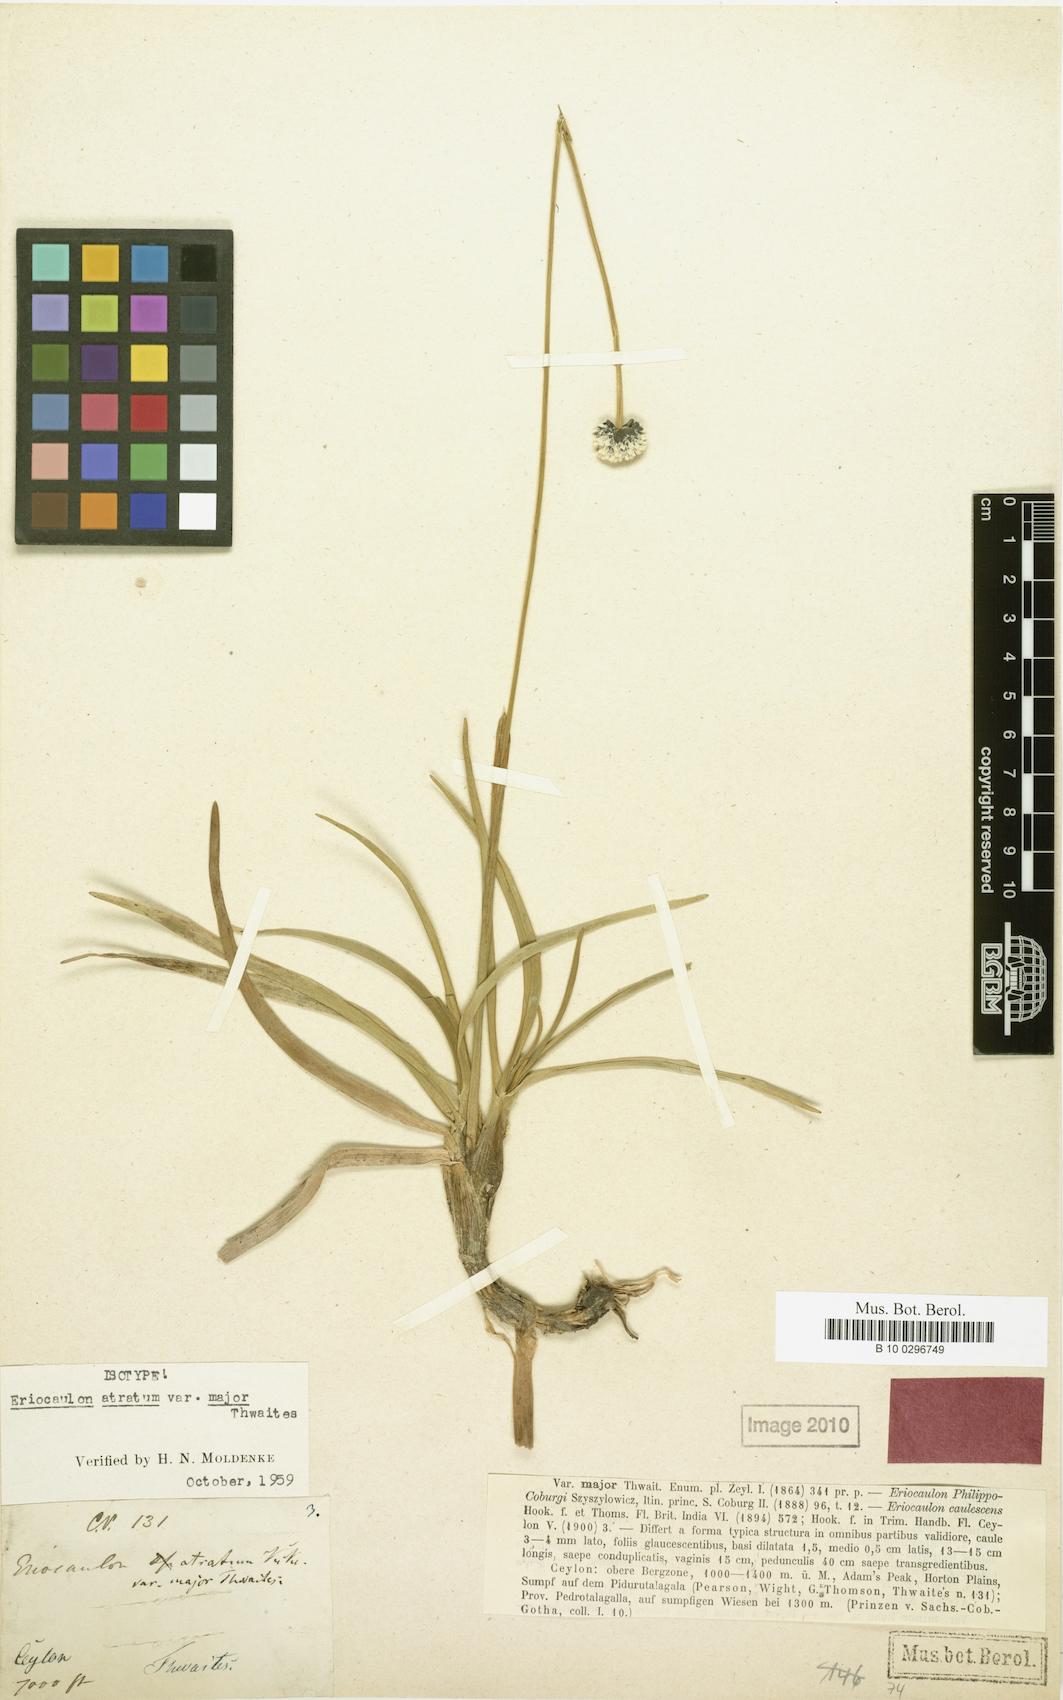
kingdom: Plantae
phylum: Tracheophyta
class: Liliopsida
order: Poales
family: Eriocaulaceae
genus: Eriocaulon
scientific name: Eriocaulon philippo-coburgii
